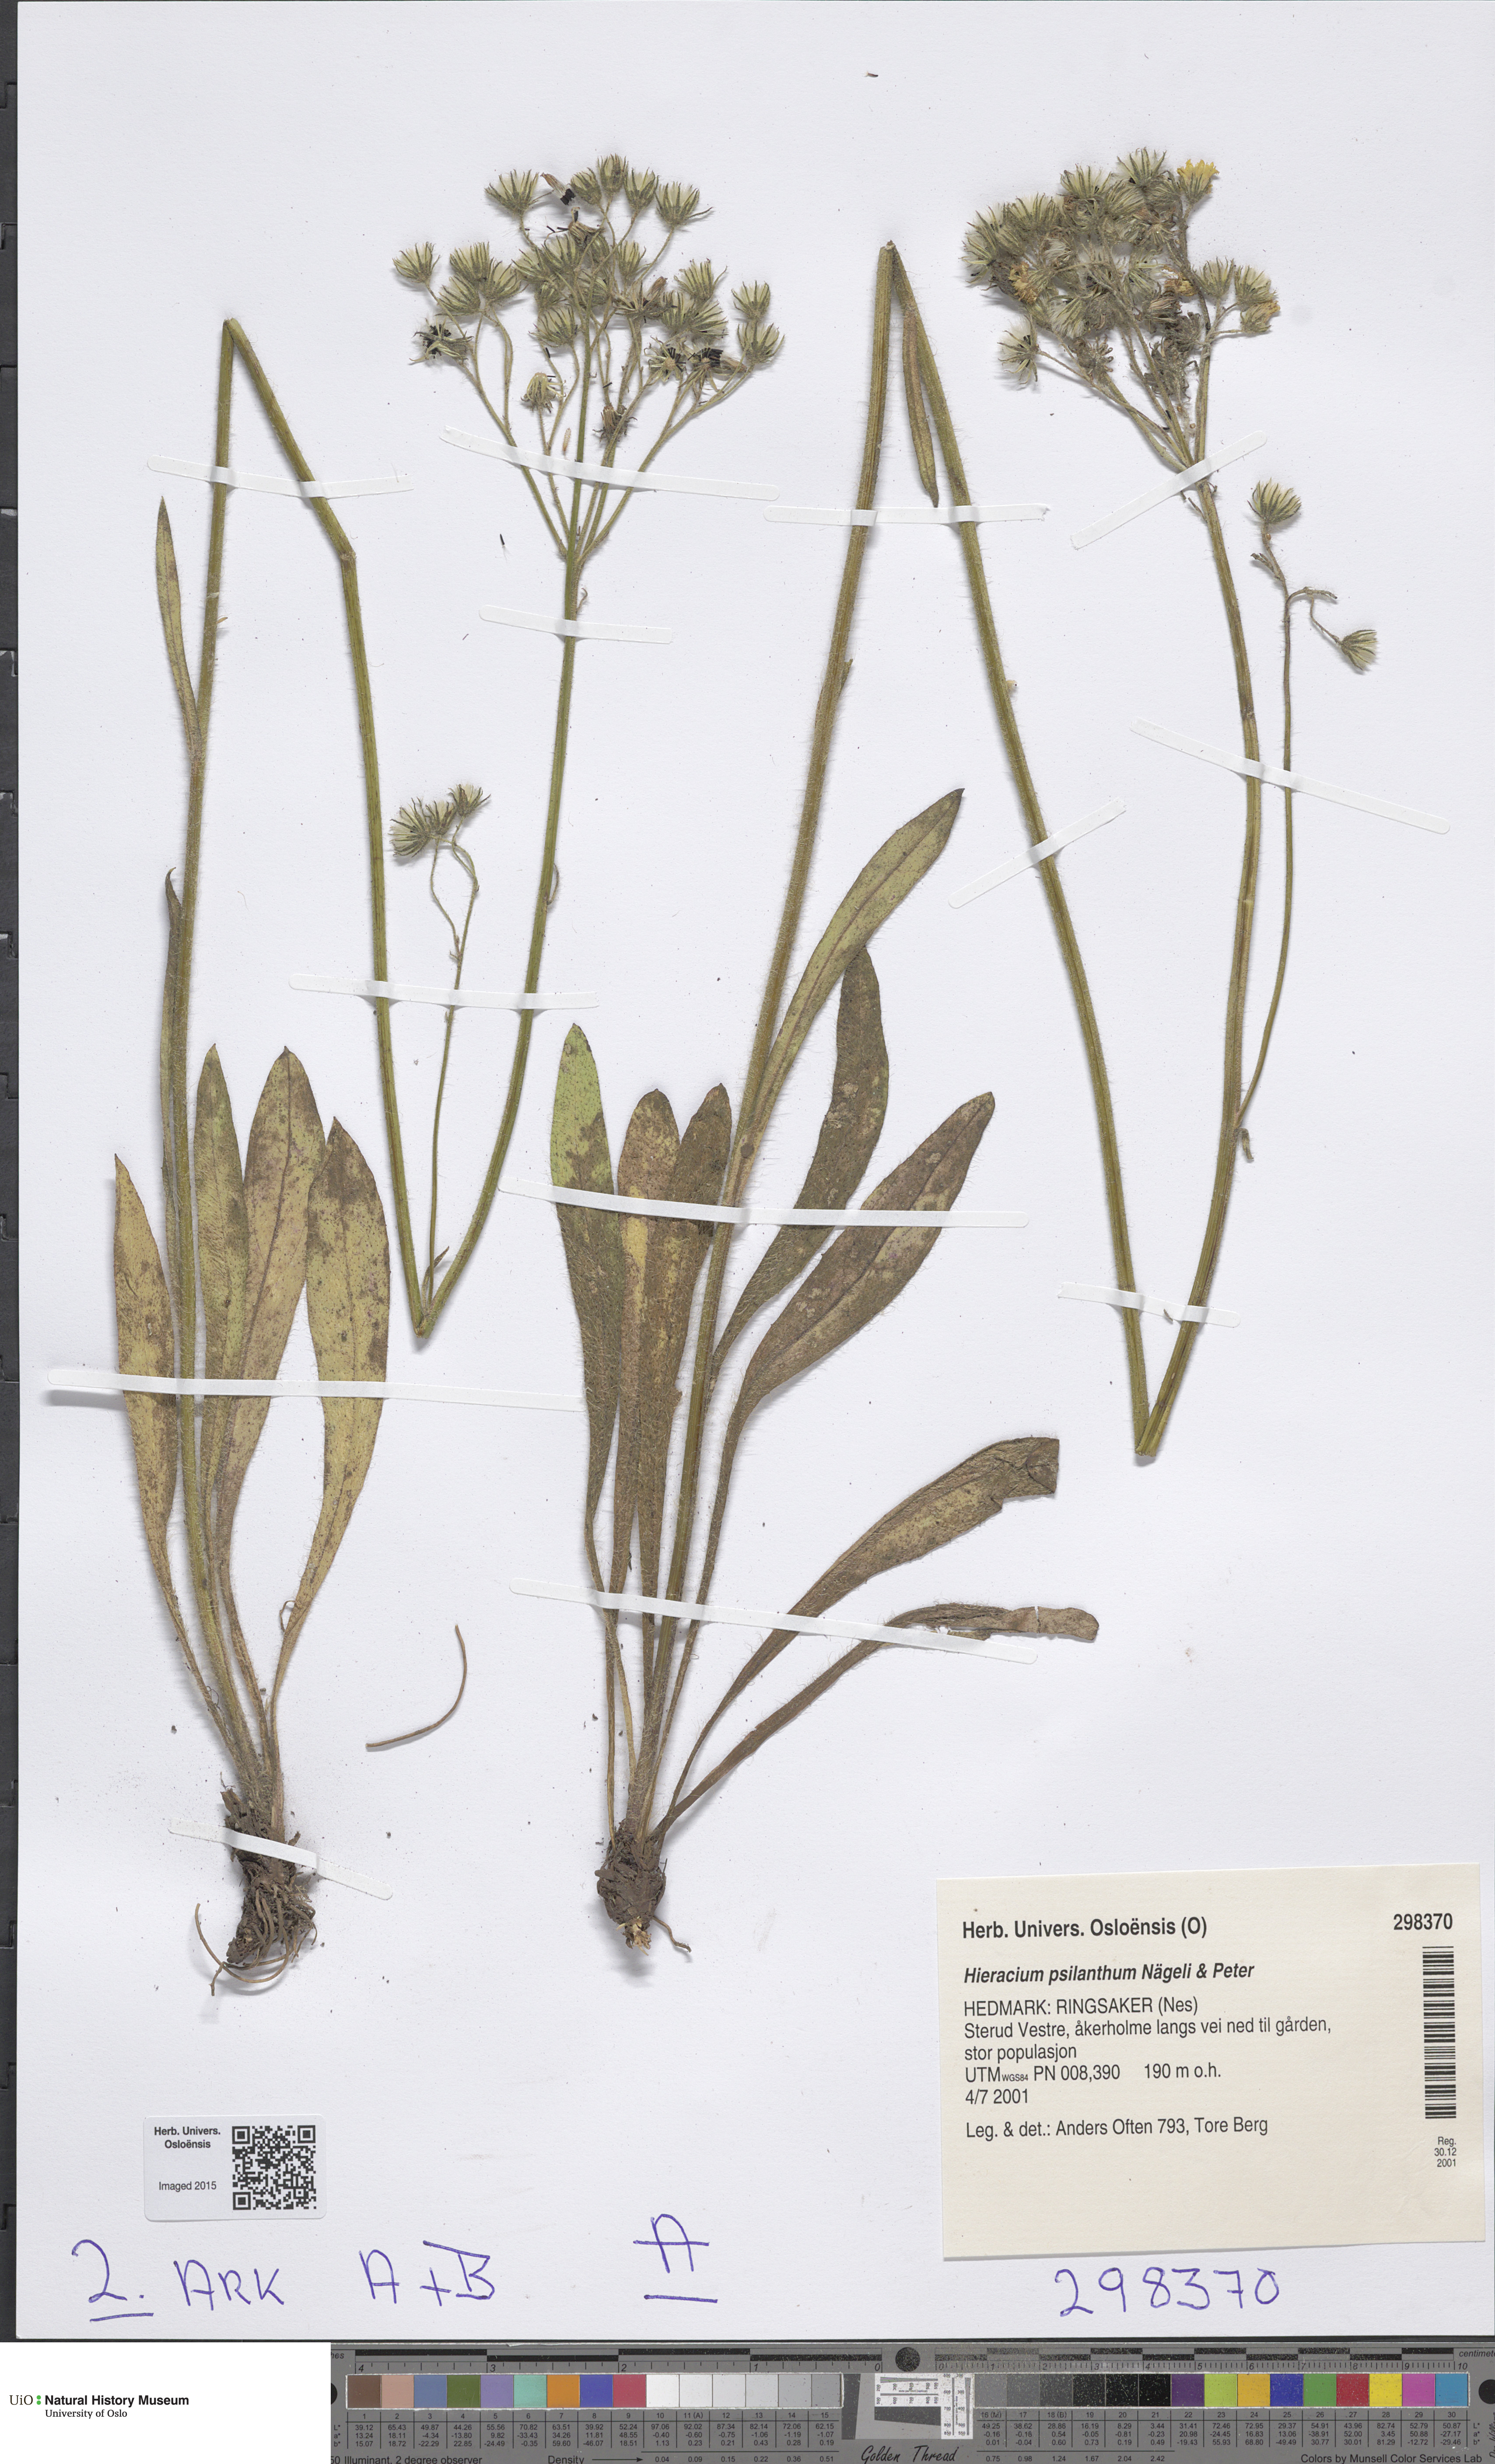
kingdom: Plantae
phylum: Tracheophyta
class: Magnoliopsida
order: Asterales
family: Asteraceae
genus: Pilosella
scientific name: Pilosella cymosa
